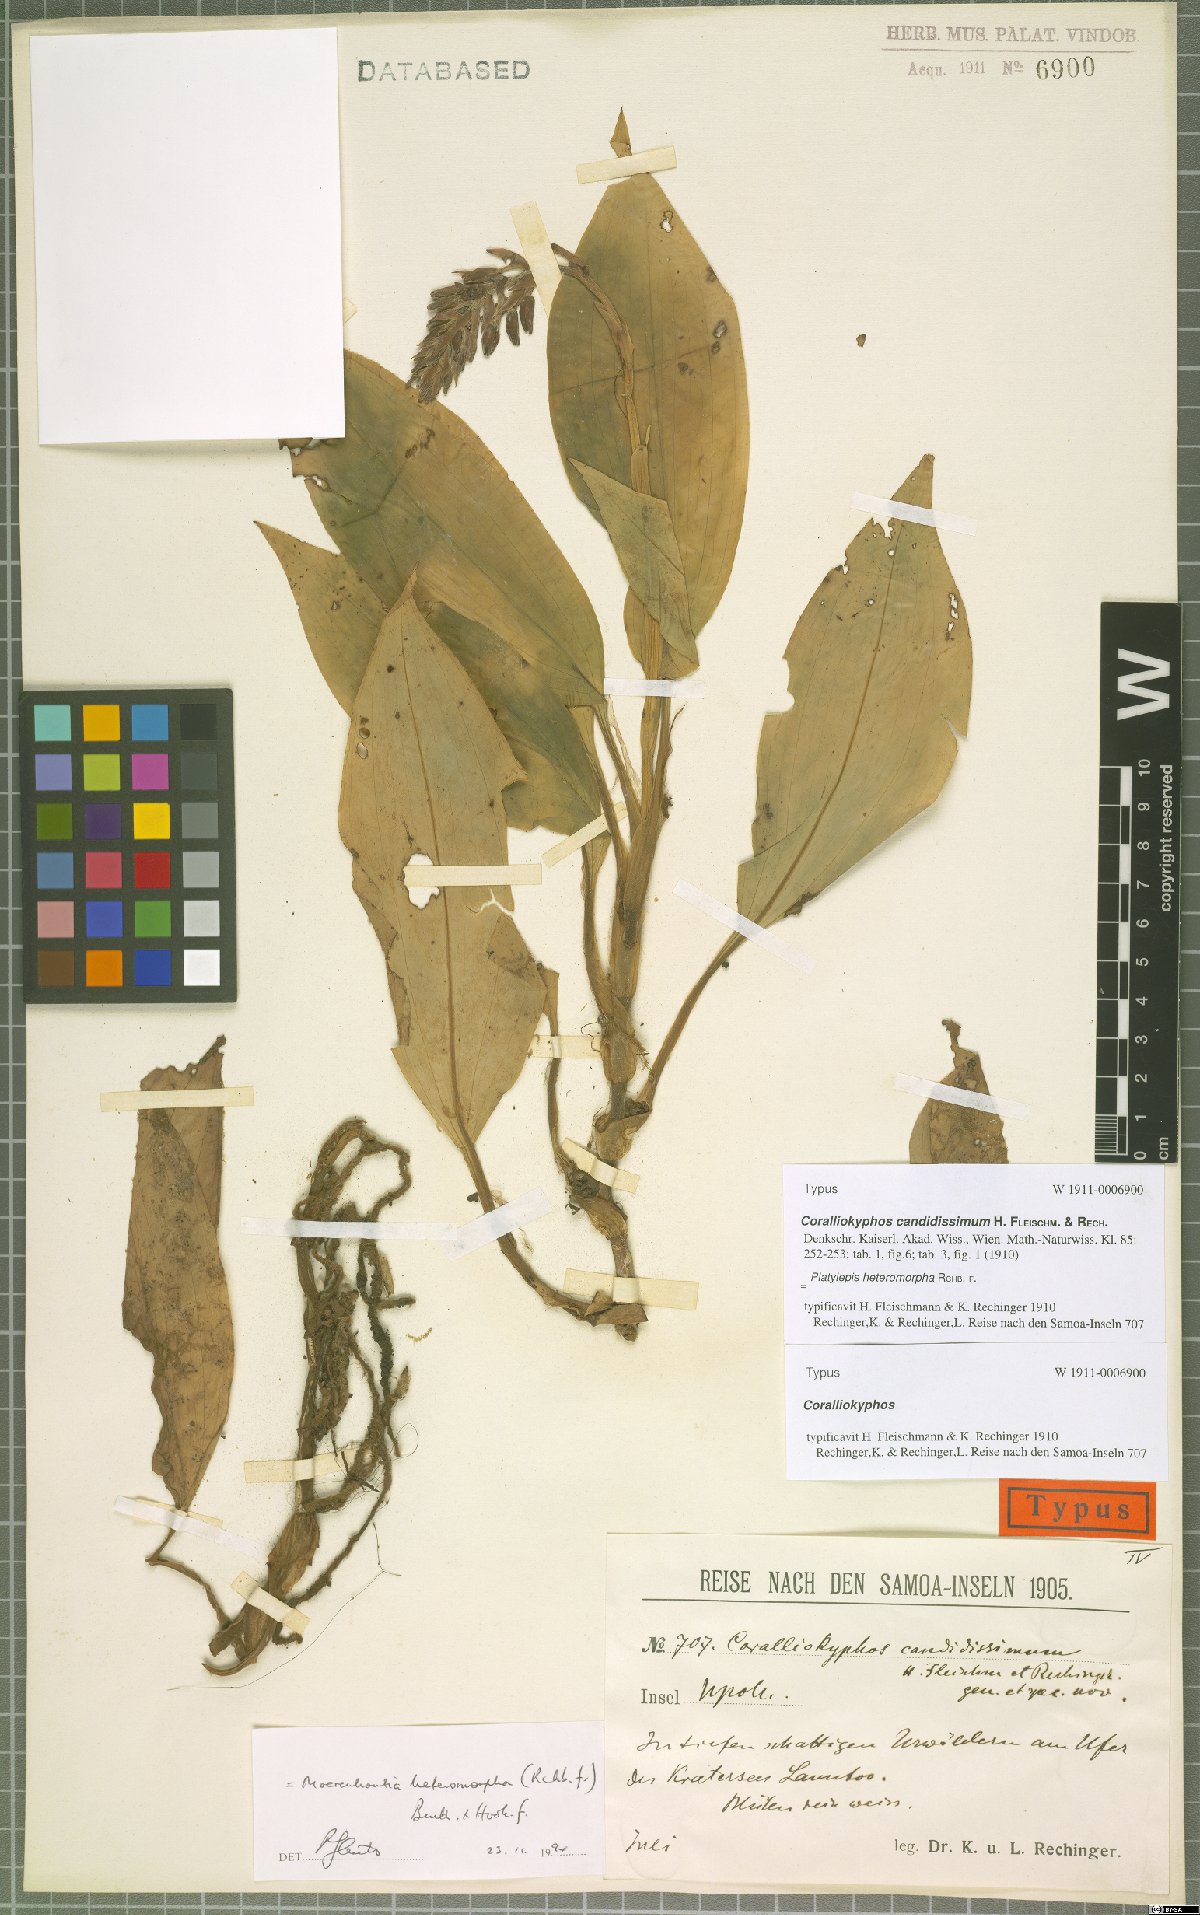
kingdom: Plantae
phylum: Tracheophyta
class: Liliopsida
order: Asparagales
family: Orchidaceae
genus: Platylepis
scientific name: Platylepis heteromorpha
